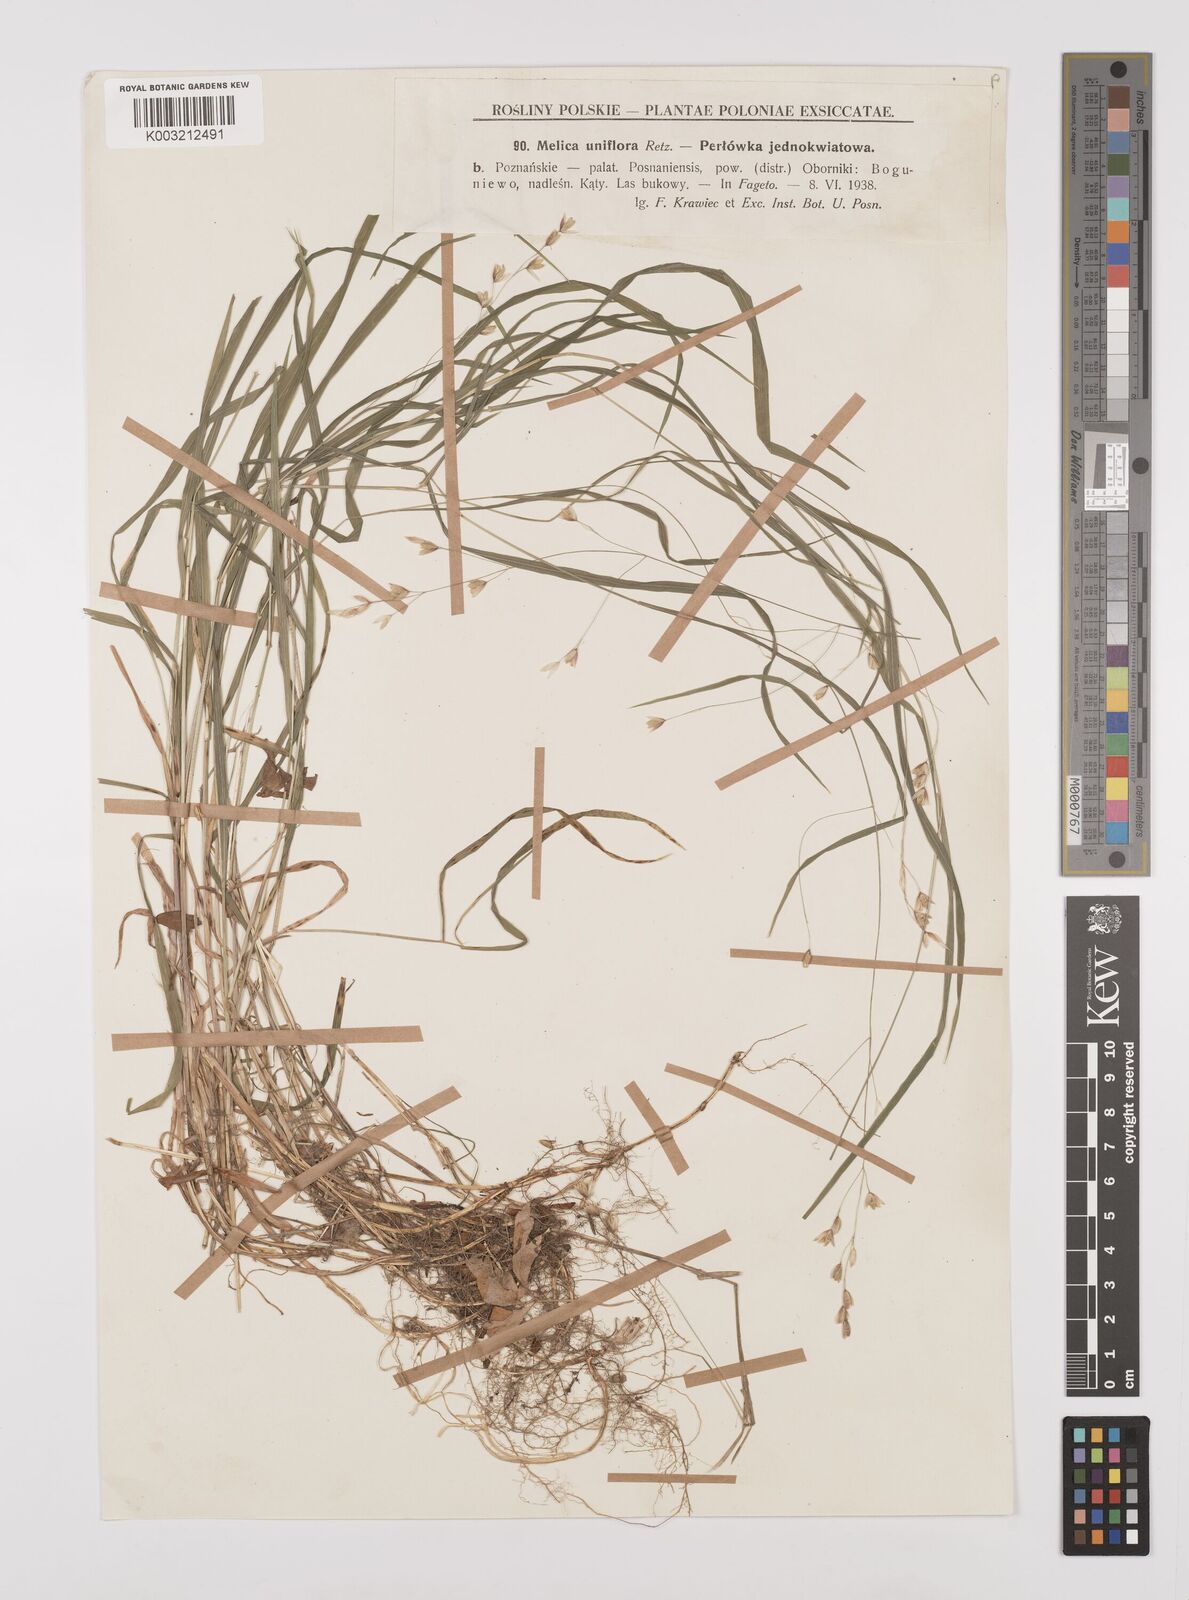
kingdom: Plantae
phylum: Tracheophyta
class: Liliopsida
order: Poales
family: Poaceae
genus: Melica
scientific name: Melica uniflora
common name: Wood melick
